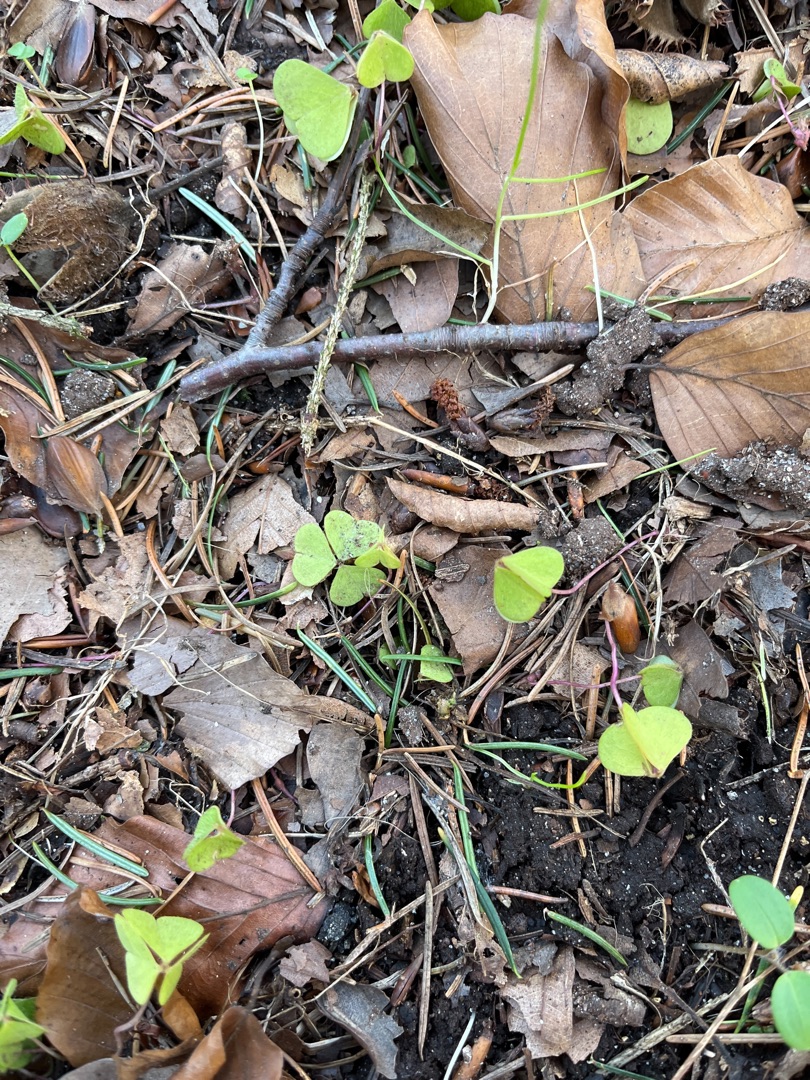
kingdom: Plantae
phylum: Tracheophyta
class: Magnoliopsida
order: Oxalidales
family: Oxalidaceae
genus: Oxalis
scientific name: Oxalis acetosella
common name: Skovsyre
